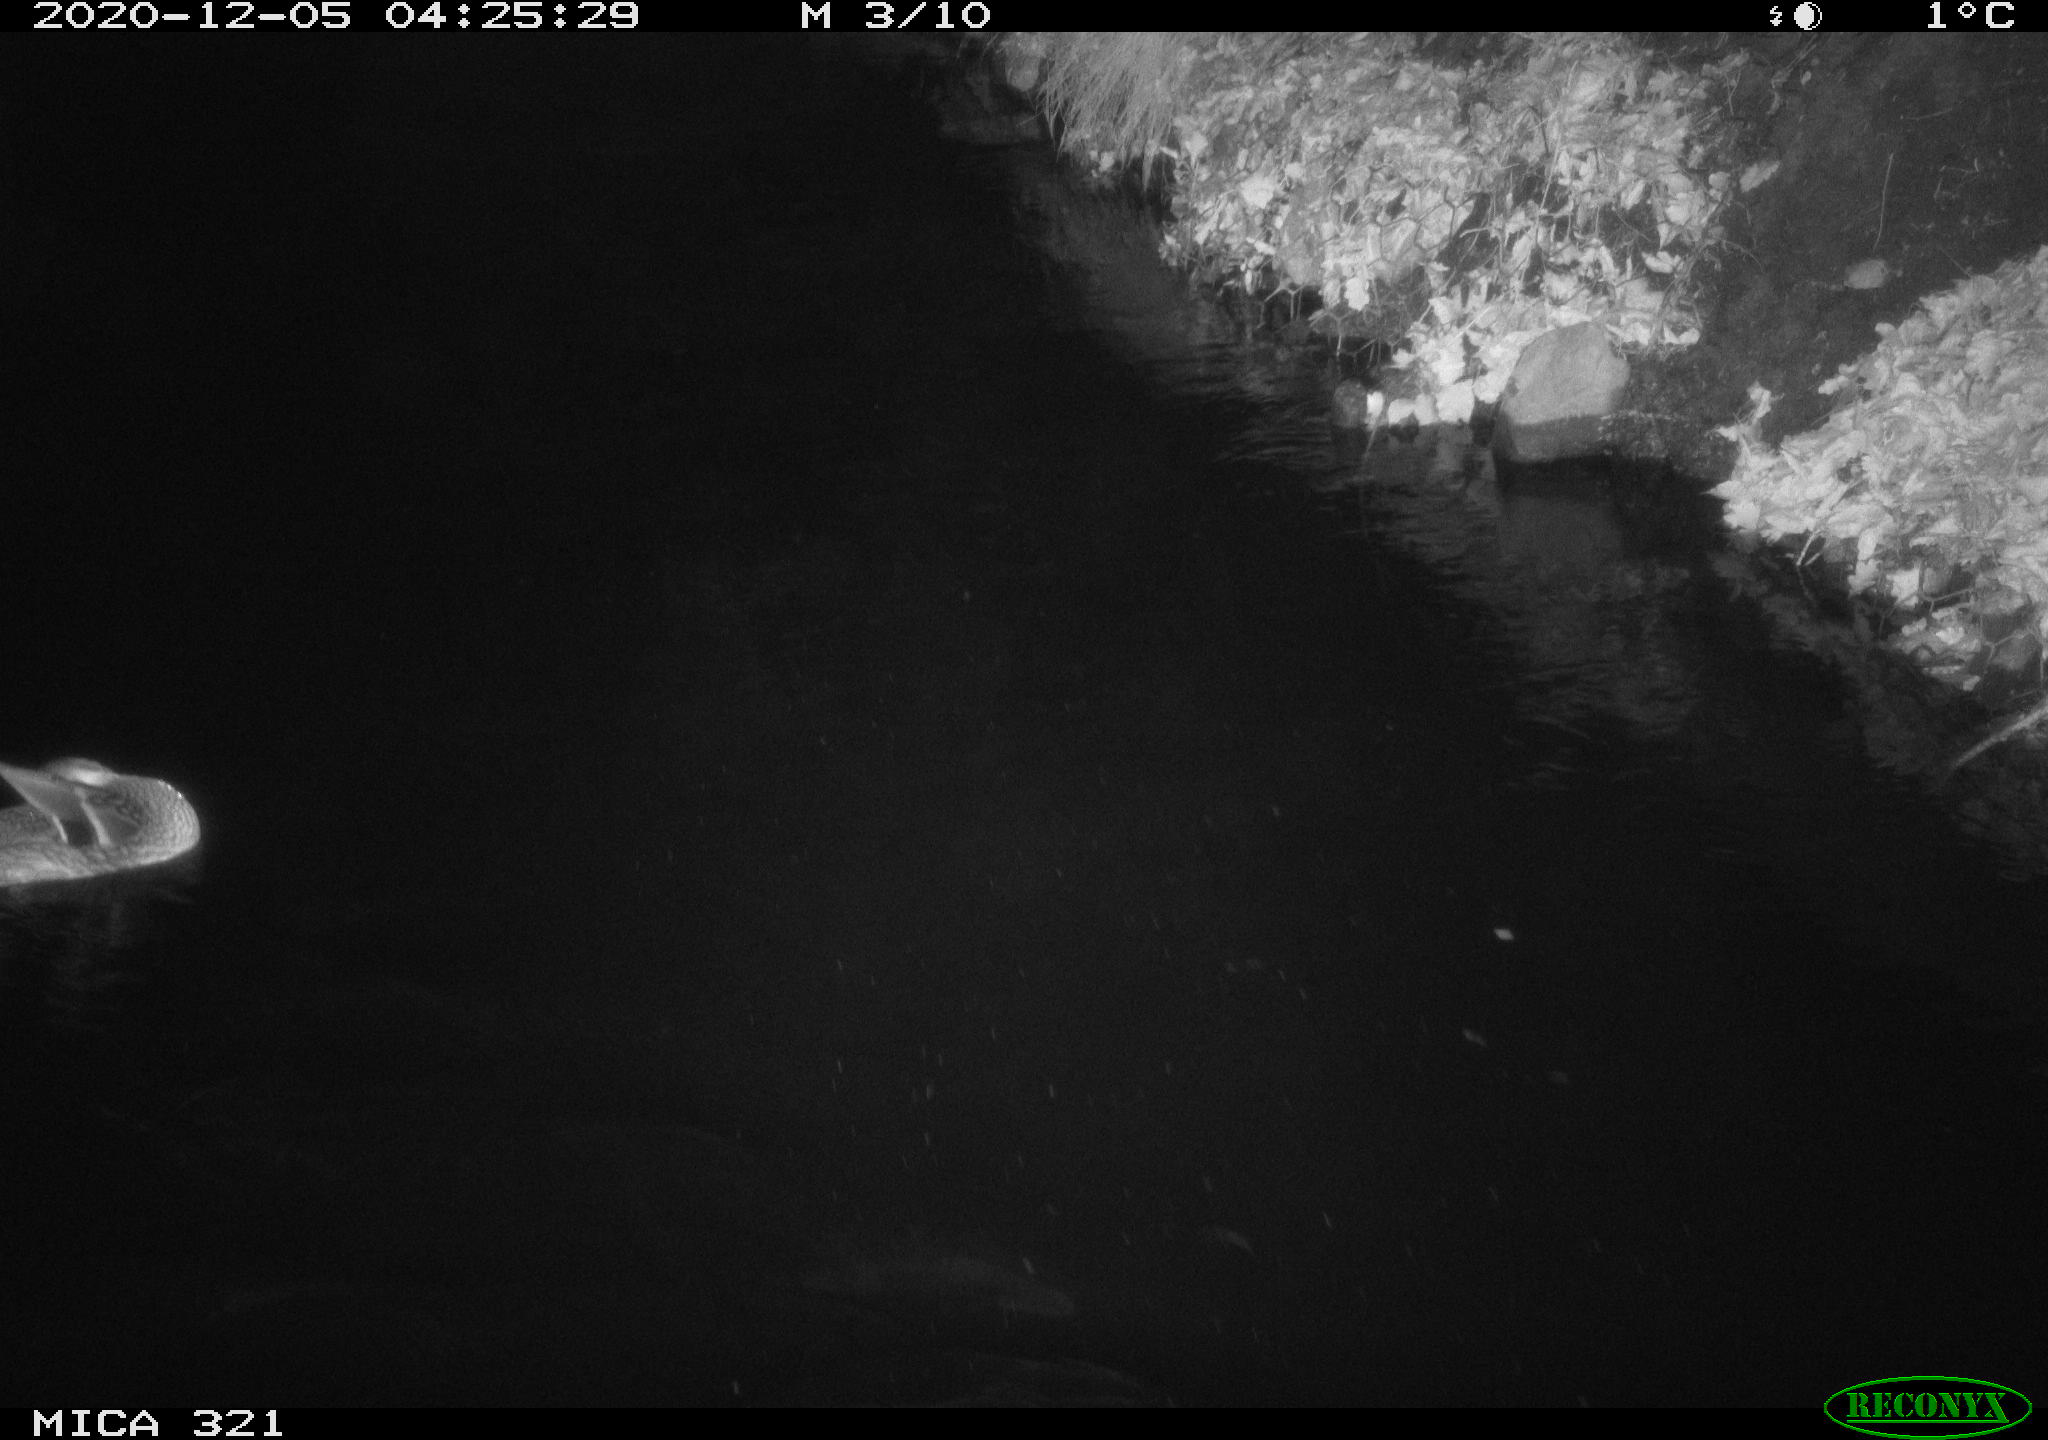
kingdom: Animalia
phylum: Chordata
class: Aves
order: Anseriformes
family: Anatidae
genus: Anas
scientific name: Anas platyrhynchos
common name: Mallard
